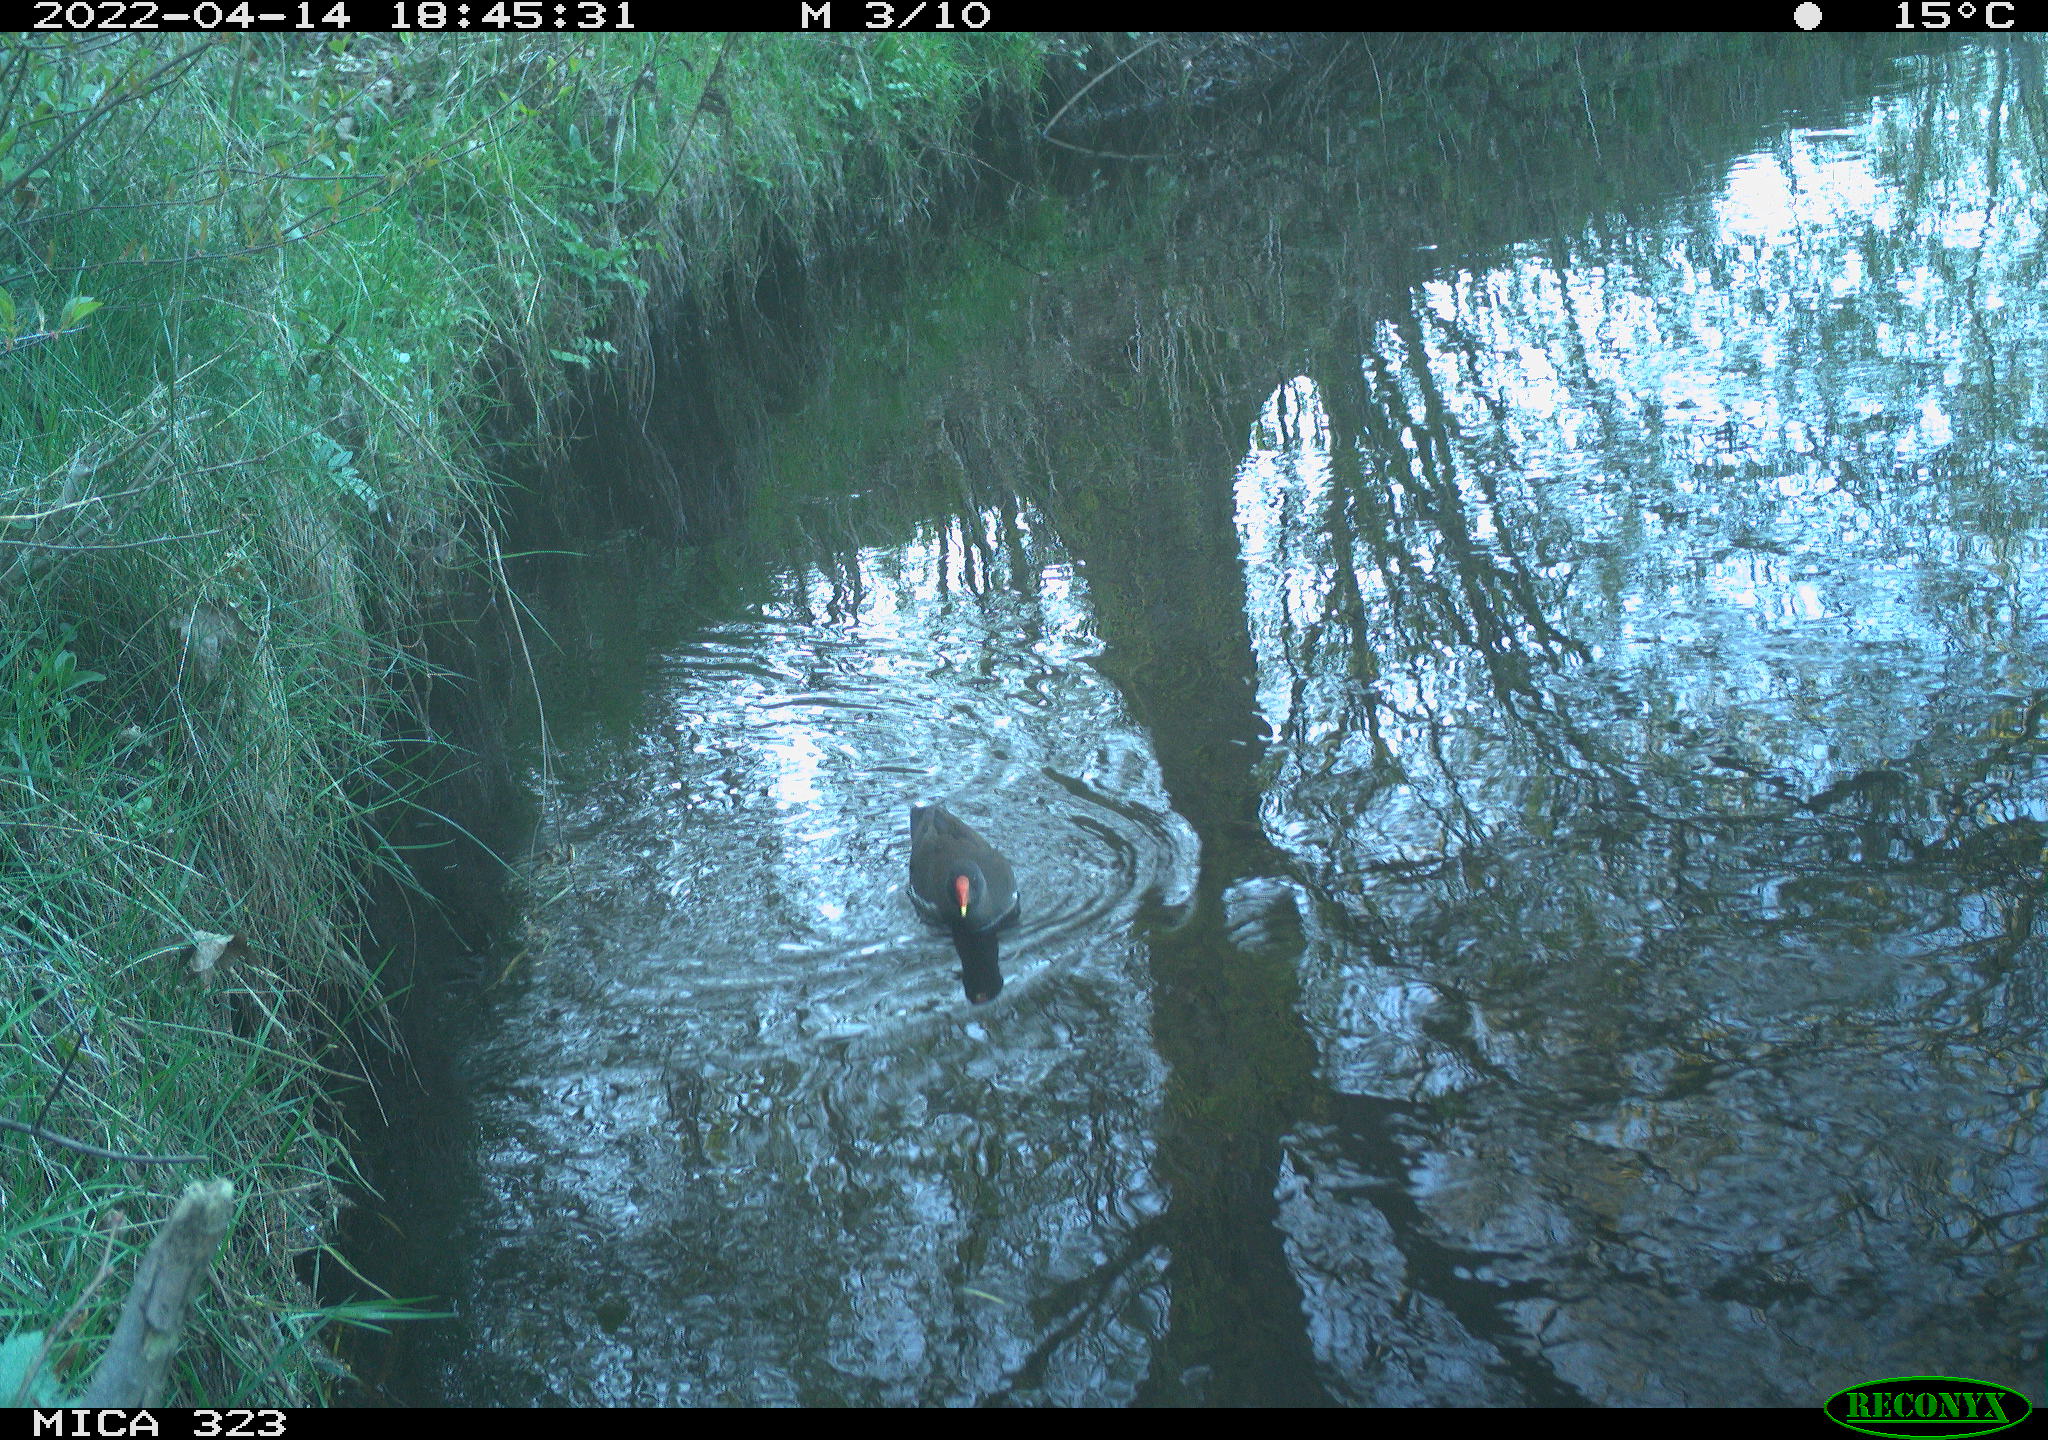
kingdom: Animalia
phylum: Chordata
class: Aves
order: Gruiformes
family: Rallidae
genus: Gallinula
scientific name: Gallinula chloropus
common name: Common moorhen
